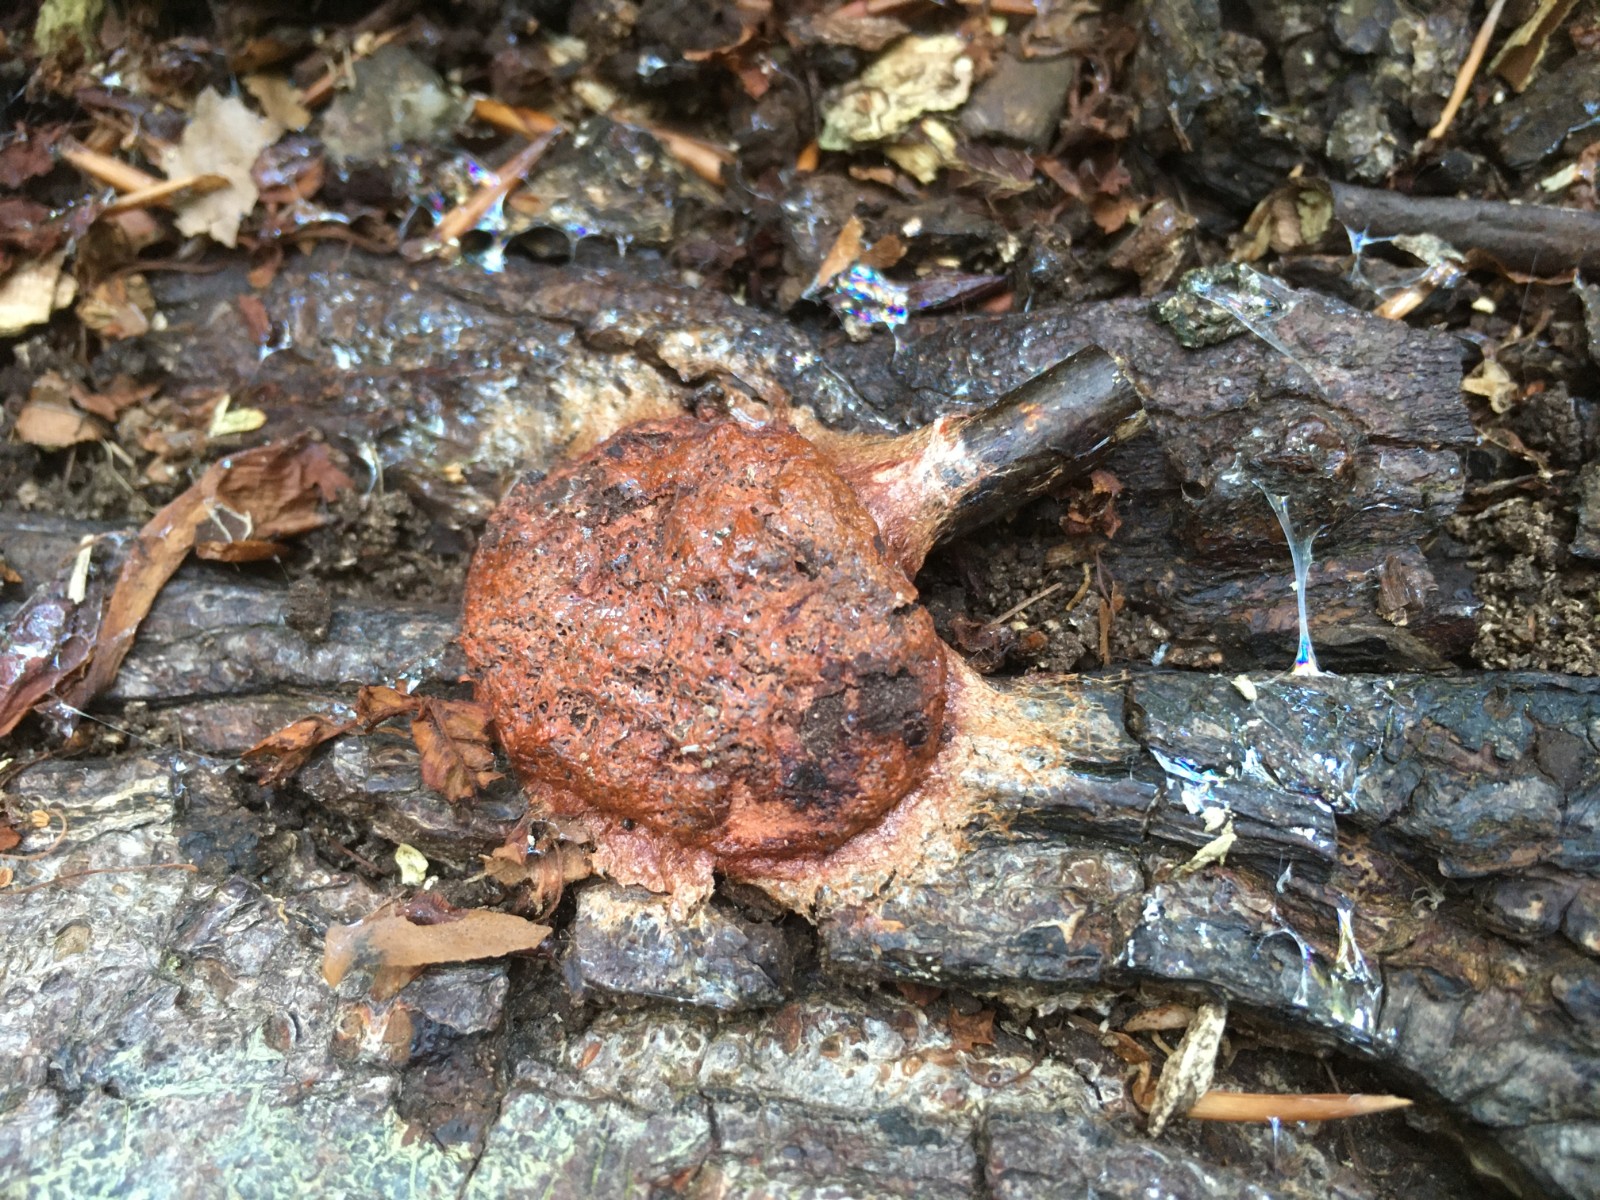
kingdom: Protozoa
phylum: Mycetozoa
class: Myxomycetes
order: Physarales
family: Physaraceae
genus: Fuligo
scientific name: Fuligo leviderma
